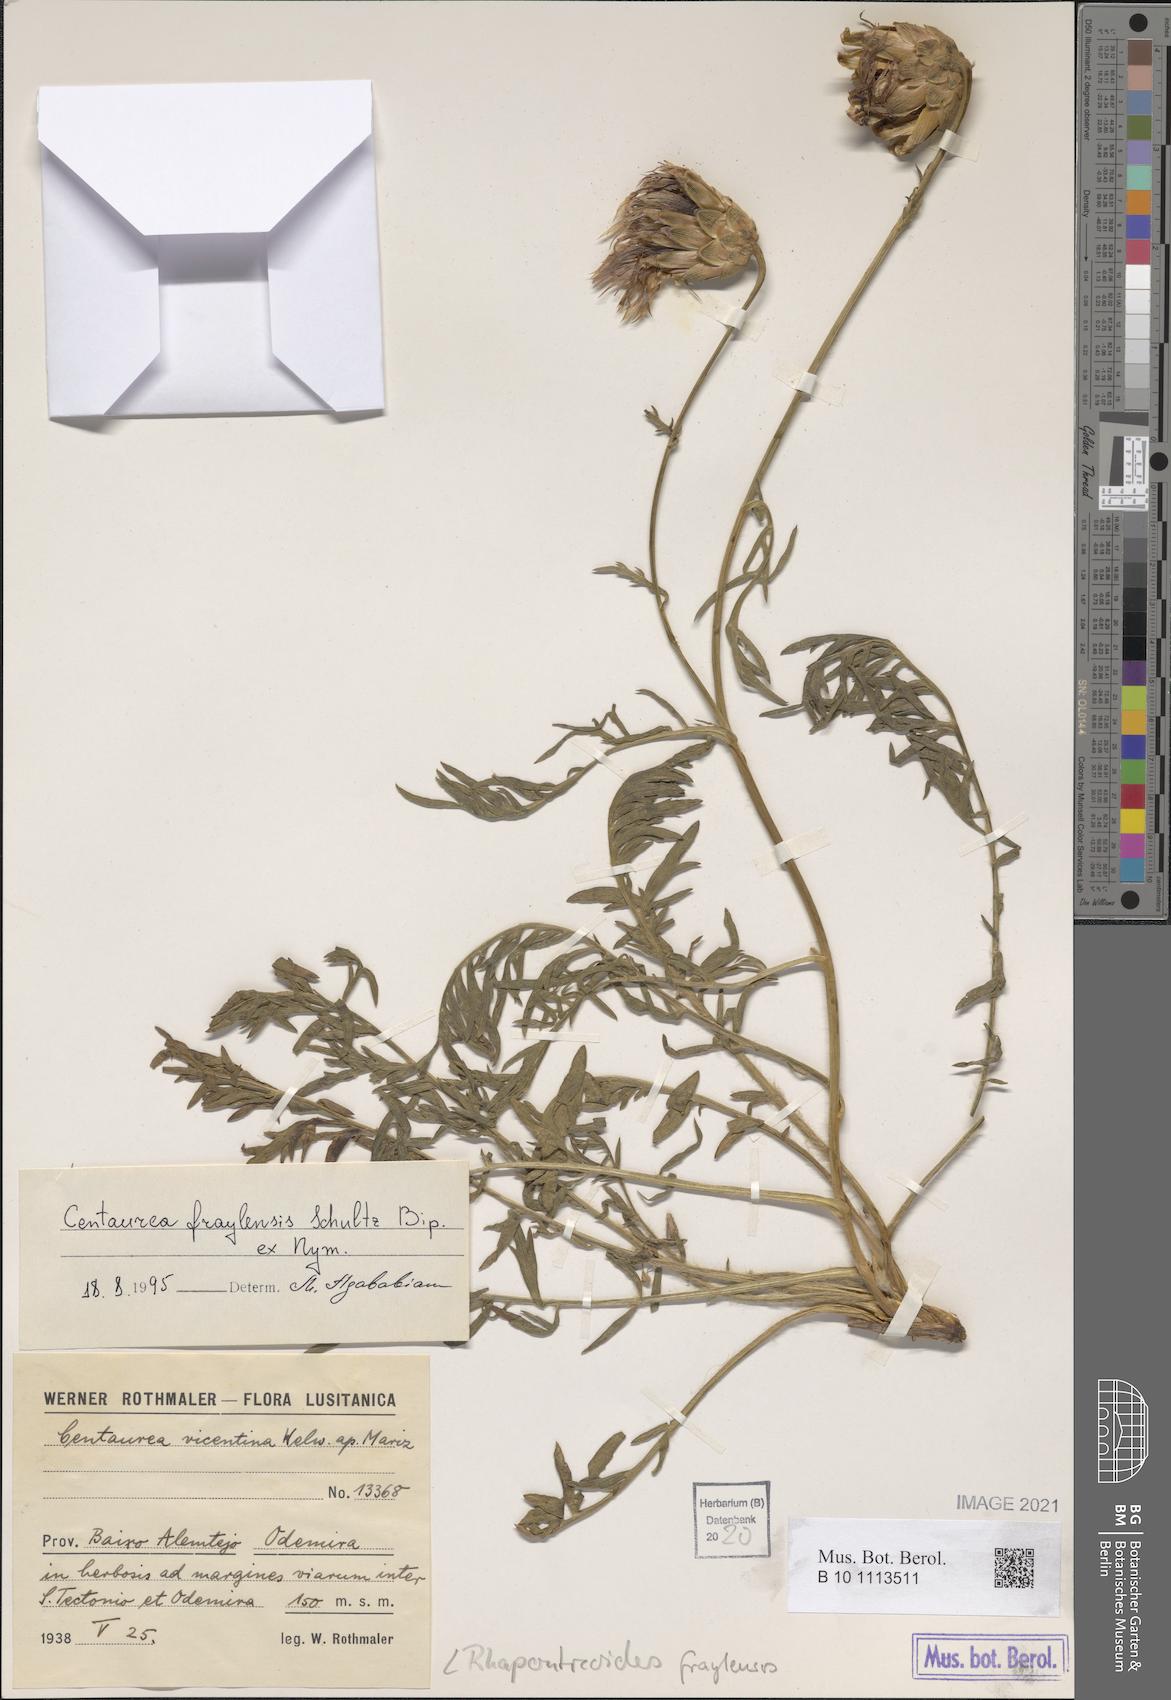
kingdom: Plantae
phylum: Tracheophyta
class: Magnoliopsida
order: Asterales
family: Asteraceae
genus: Rhaponticoides
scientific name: Rhaponticoides fraylensis
